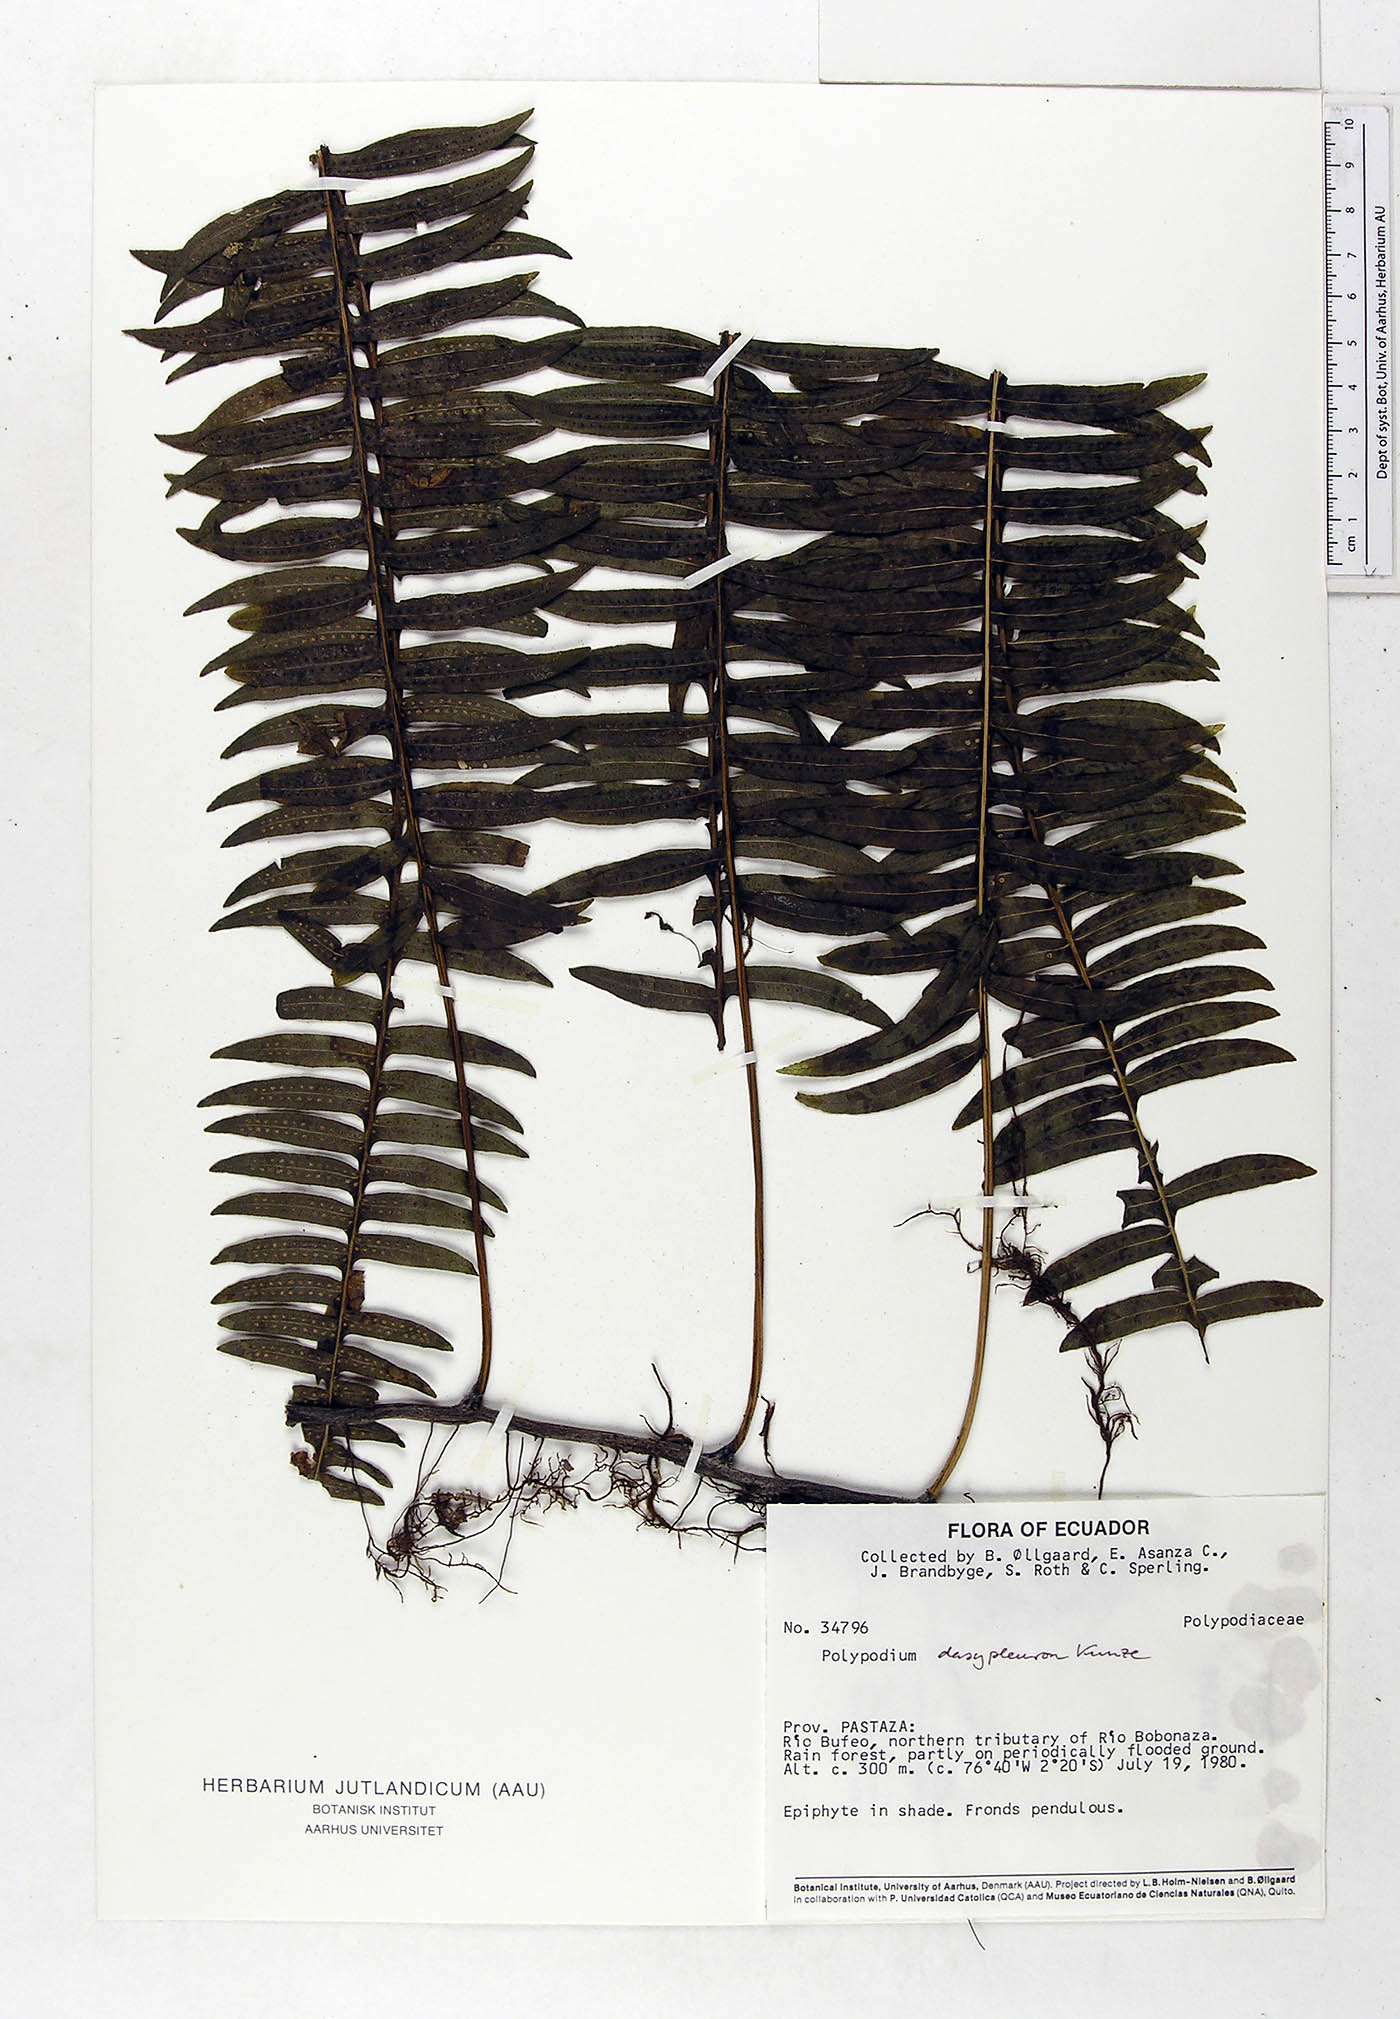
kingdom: Plantae
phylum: Tracheophyta
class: Polypodiopsida
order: Polypodiales
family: Polypodiaceae
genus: Serpocaulon
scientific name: Serpocaulon dasypleuron
